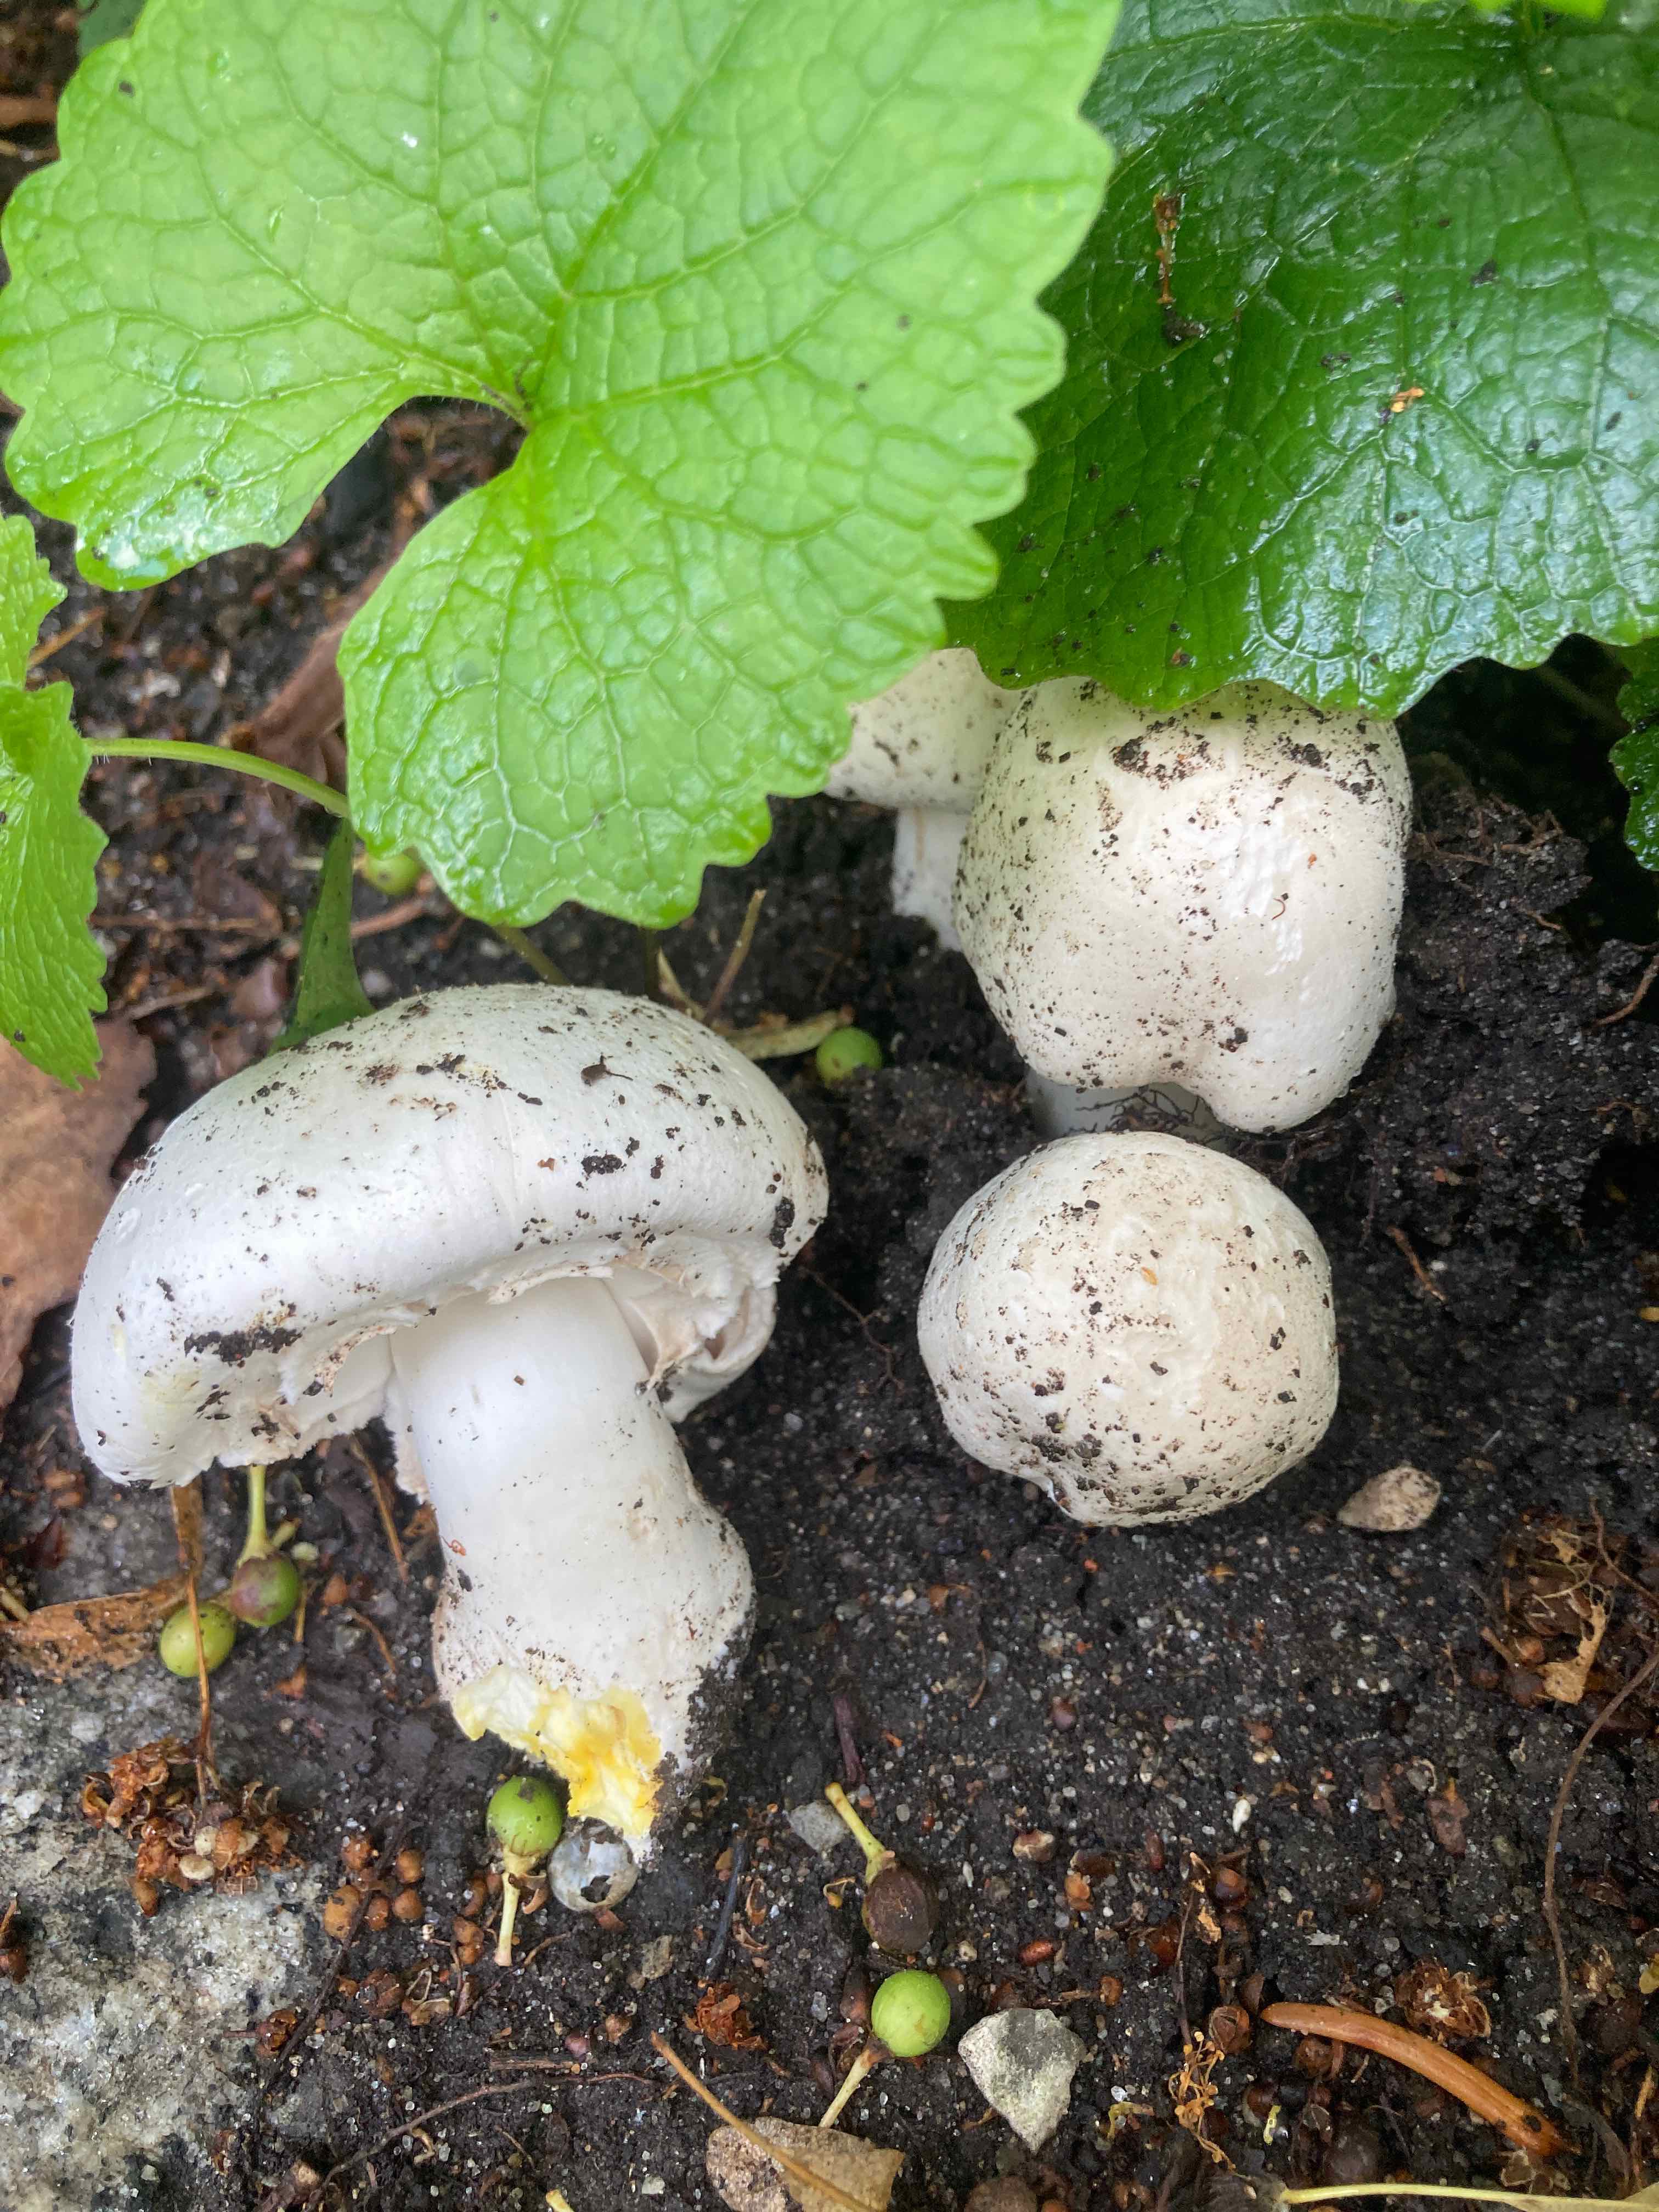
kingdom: Fungi
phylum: Basidiomycota
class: Agaricomycetes
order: Agaricales
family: Agaricaceae
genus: Agaricus
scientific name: Agaricus xanthodermus
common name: karbol-champignon
